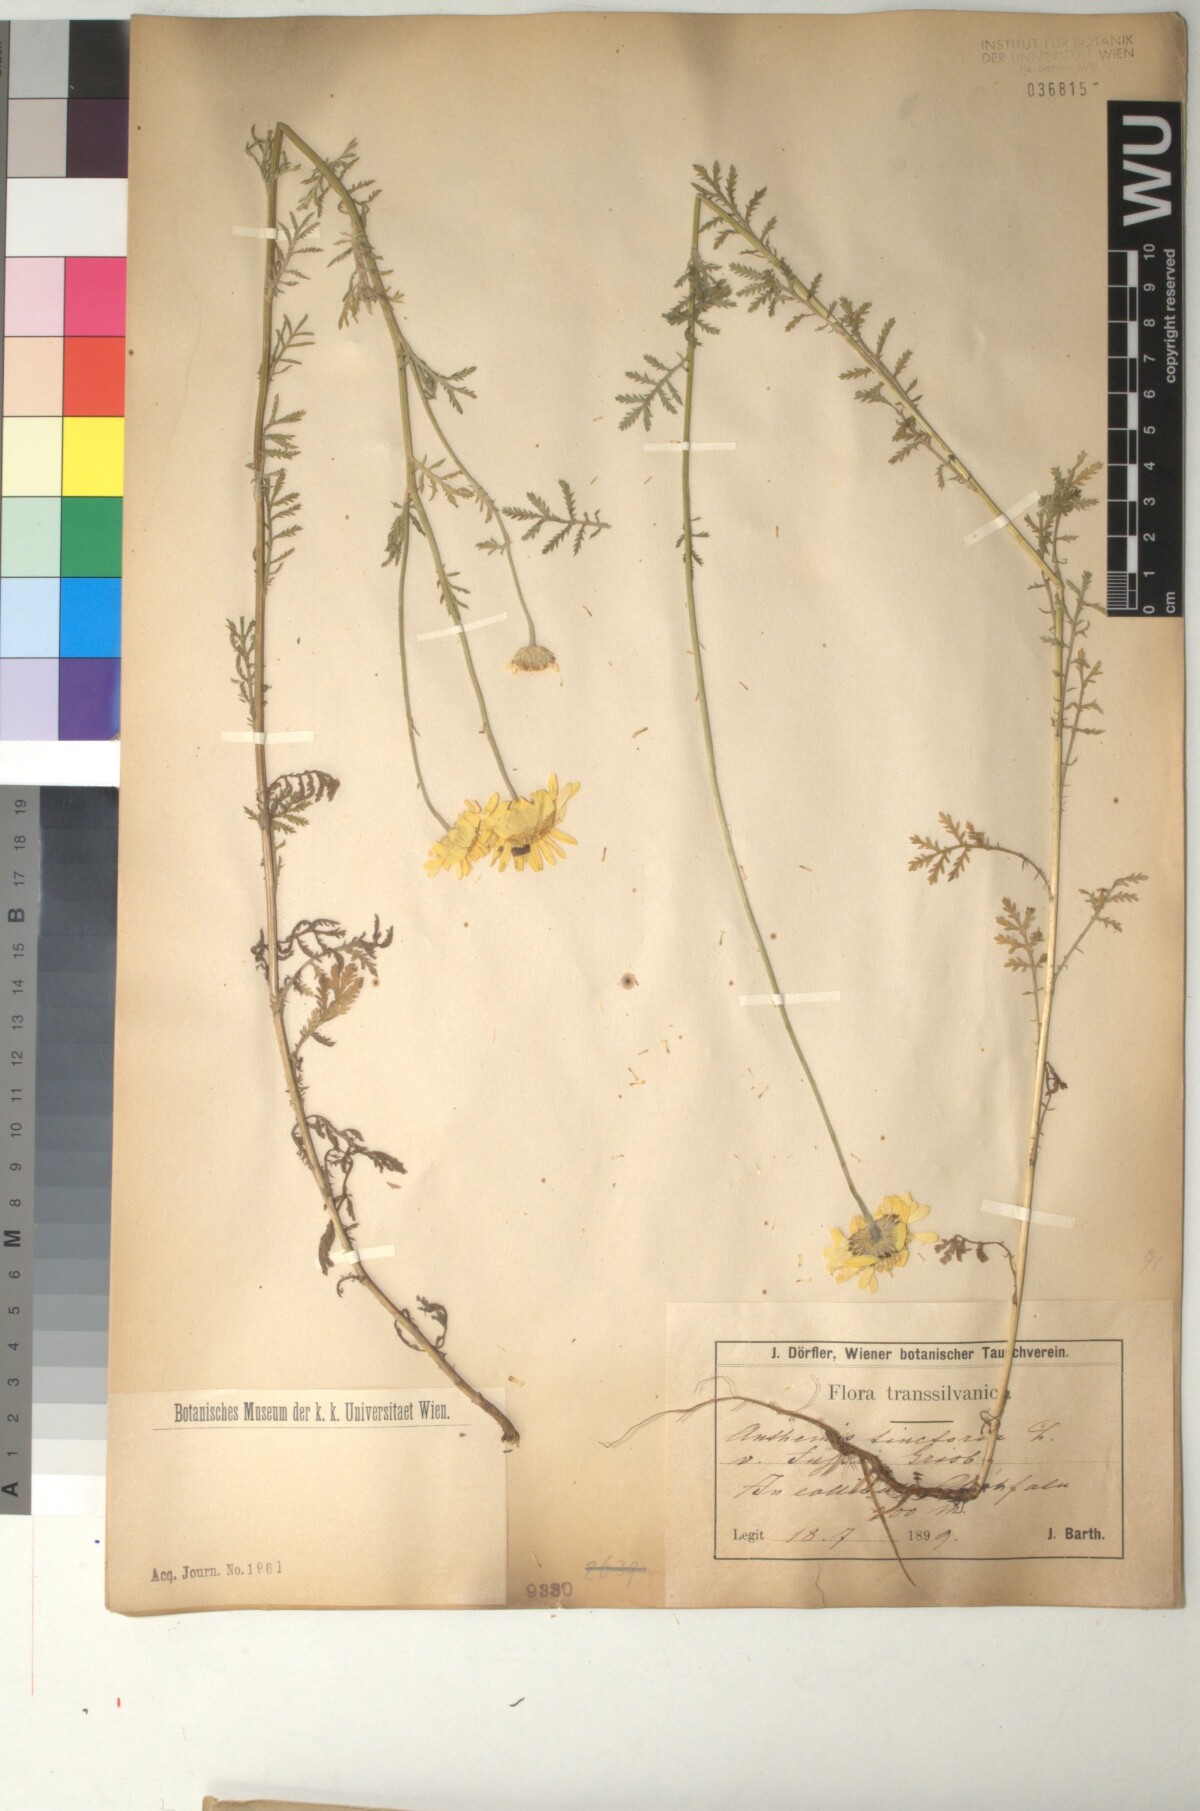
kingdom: Plantae
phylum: Tracheophyta
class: Magnoliopsida
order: Asterales
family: Asteraceae
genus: Cota
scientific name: Cota tinctoria
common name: Golden chamomile
